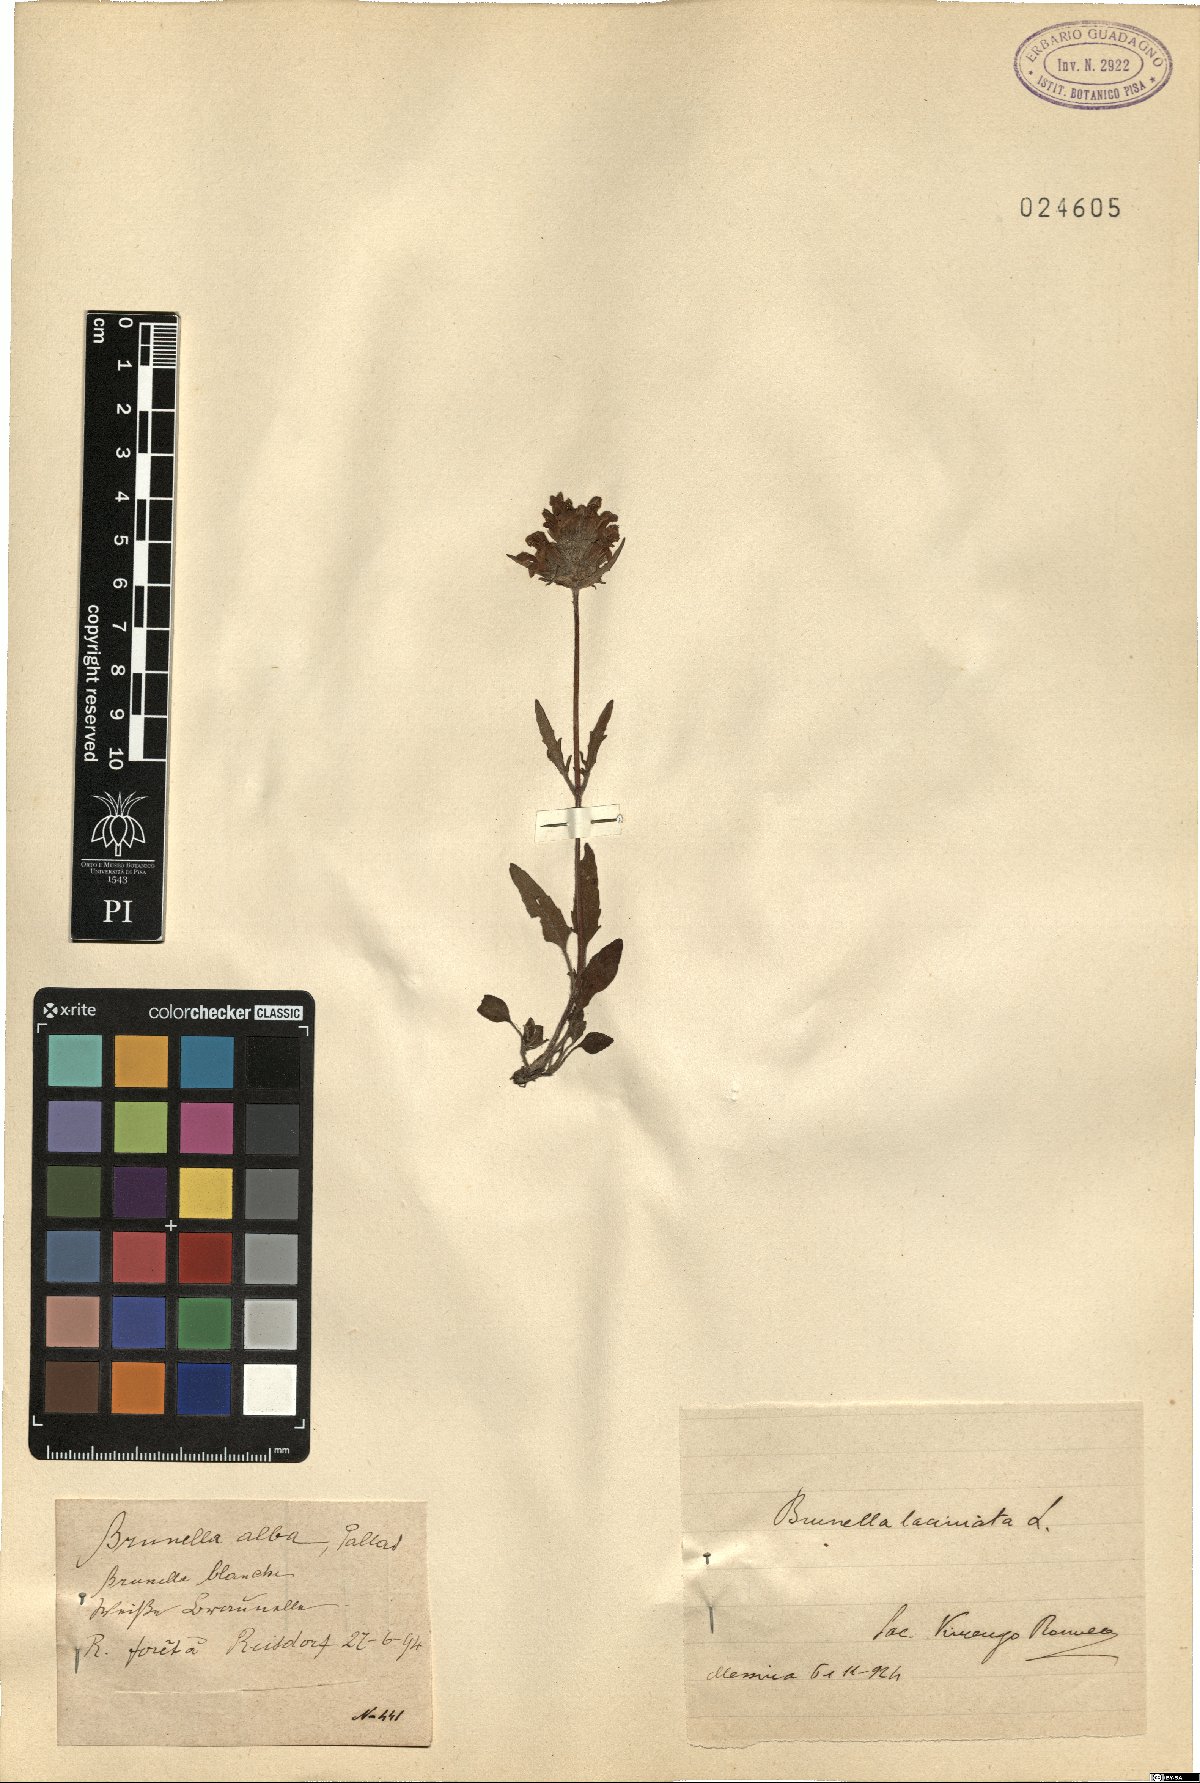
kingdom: Plantae
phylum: Tracheophyta
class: Magnoliopsida
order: Lamiales
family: Lamiaceae
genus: Prunella
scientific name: Prunella laciniata
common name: Cut-leaved selfheal
